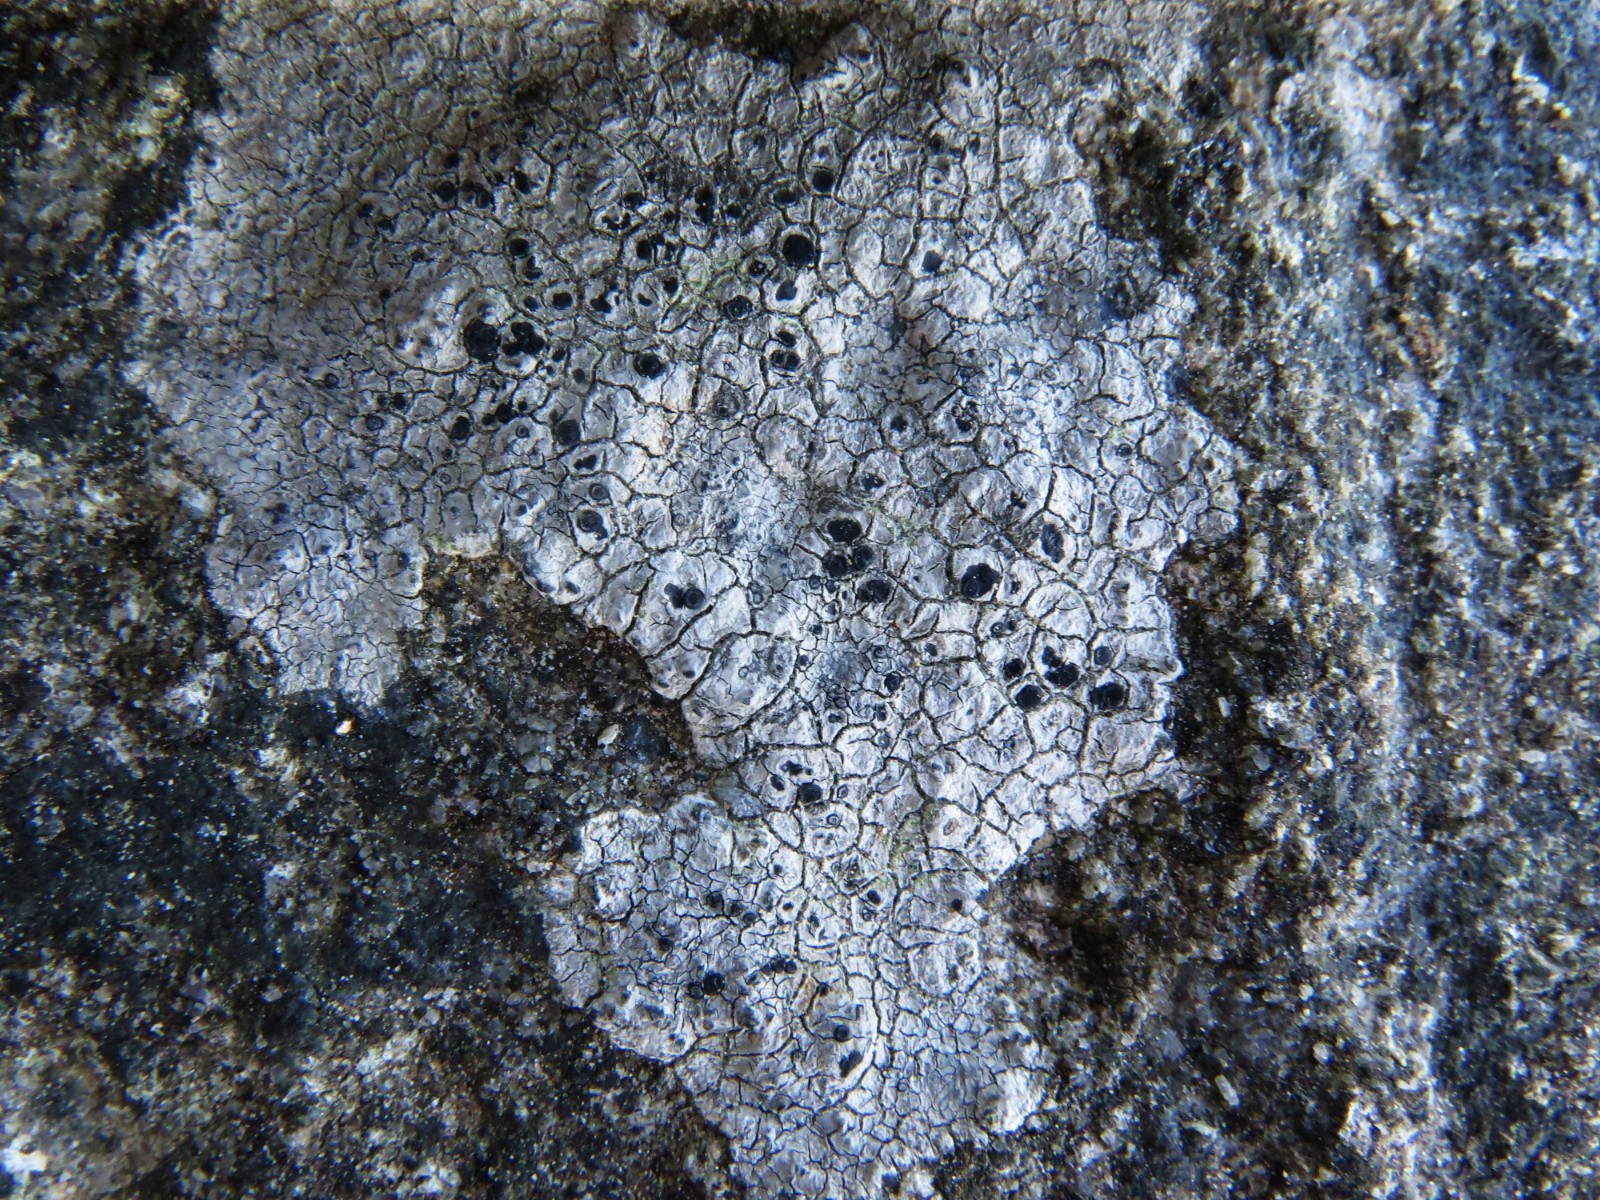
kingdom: Fungi
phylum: Ascomycota
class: Lecanoromycetes
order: Pertusariales
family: Megasporaceae
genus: Aspicilia
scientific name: Aspicilia cinerea
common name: grå hulskivelav
